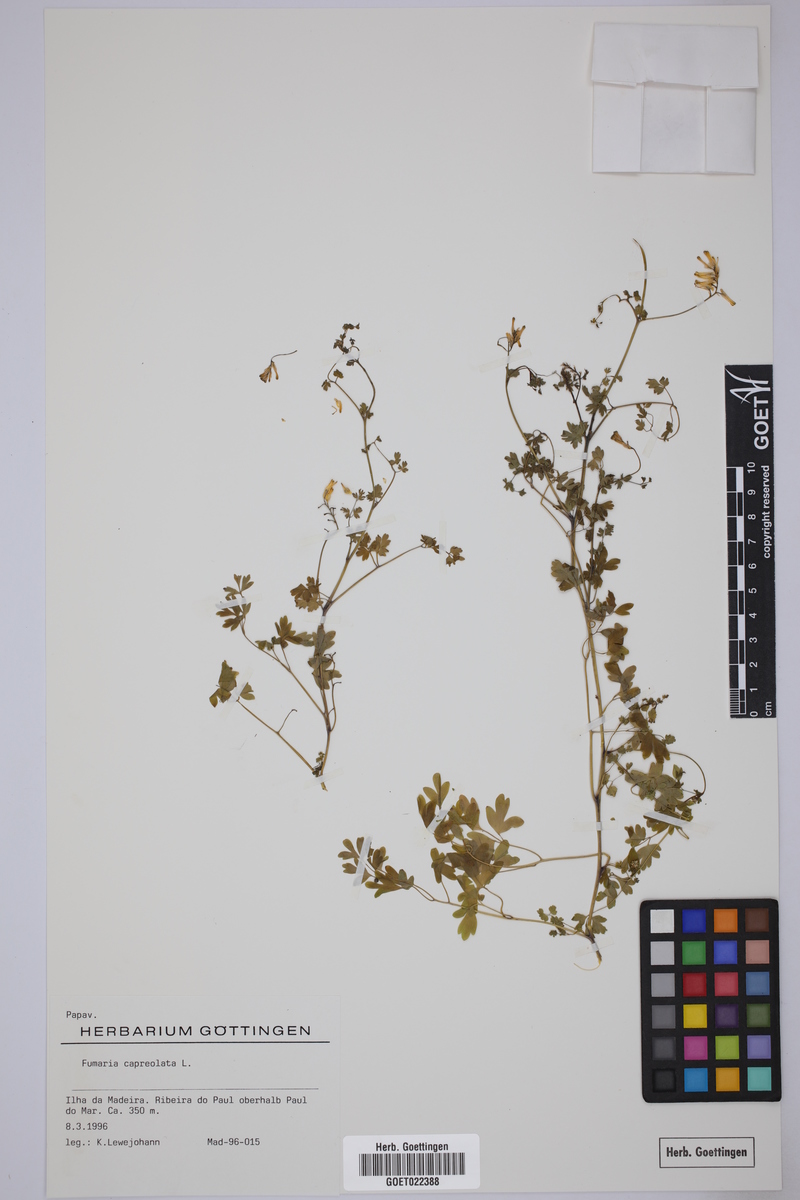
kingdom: Plantae
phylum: Tracheophyta
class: Magnoliopsida
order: Ranunculales
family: Papaveraceae
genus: Fumaria
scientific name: Fumaria capreolata
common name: White ramping-fumitory
